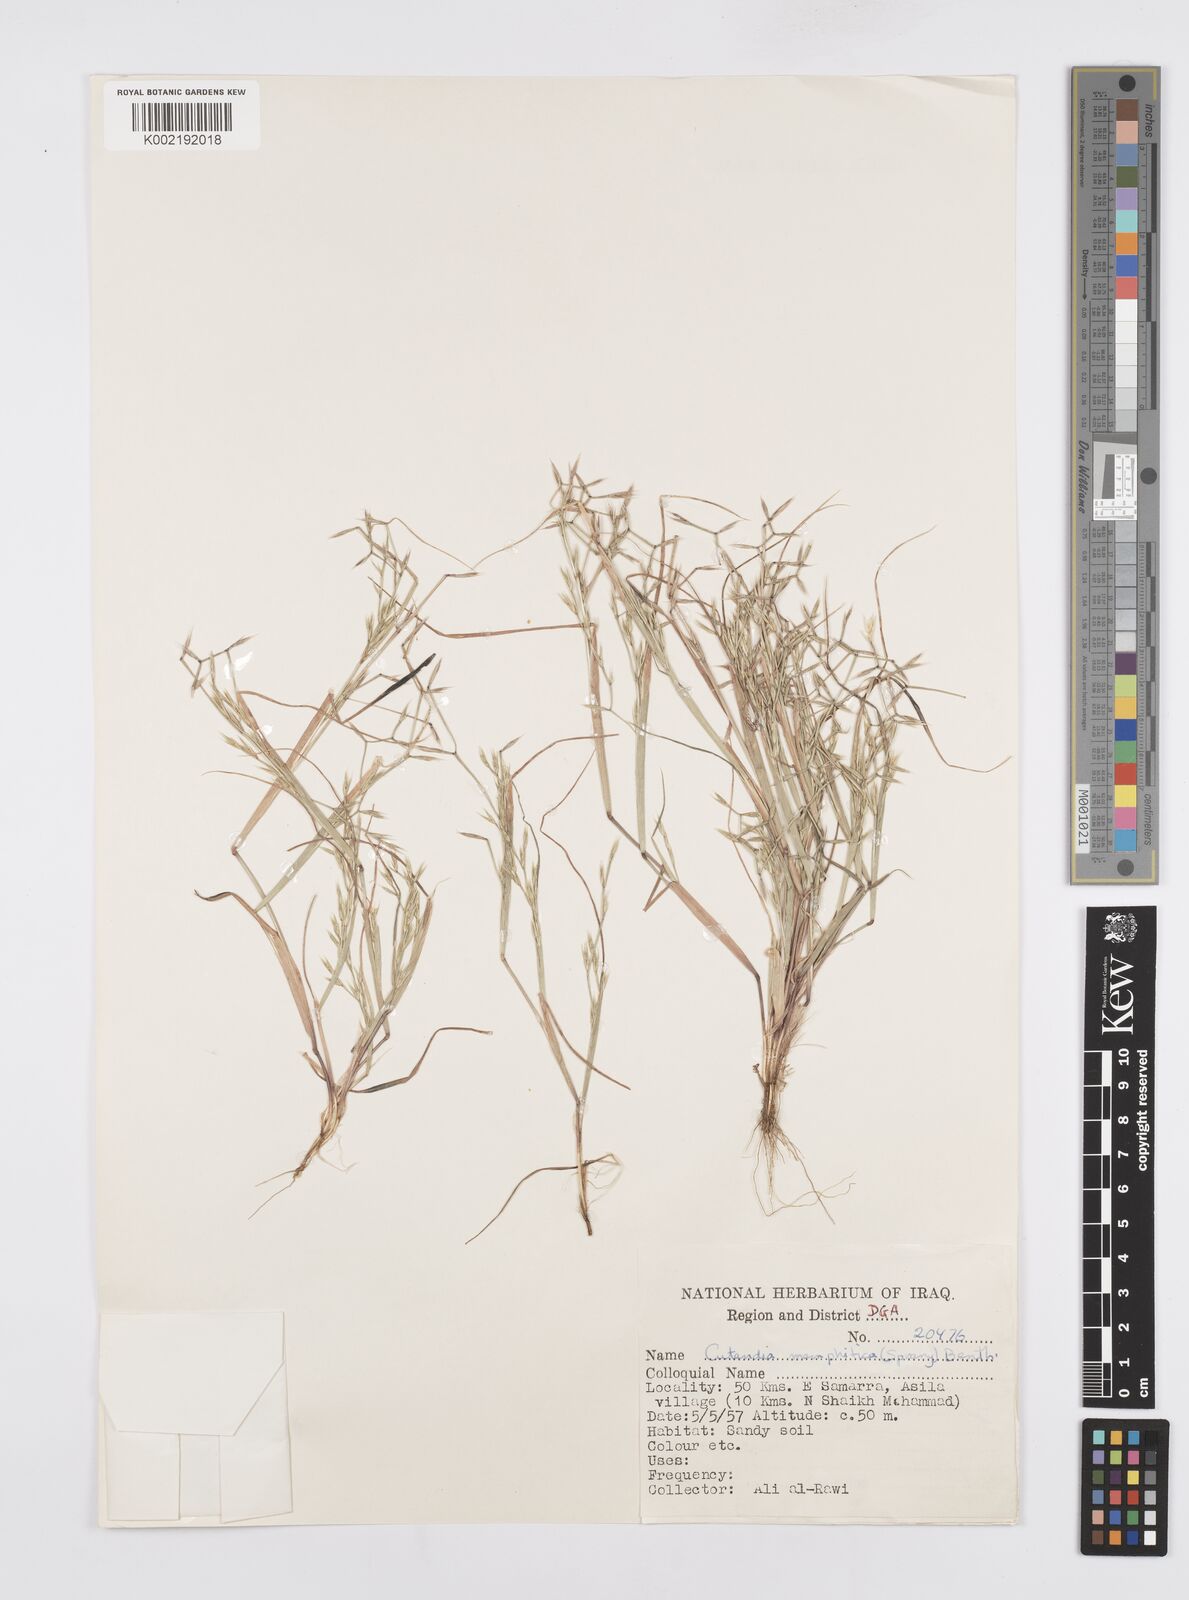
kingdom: Plantae
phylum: Tracheophyta
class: Liliopsida
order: Poales
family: Poaceae
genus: Cutandia
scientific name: Cutandia memphitica
